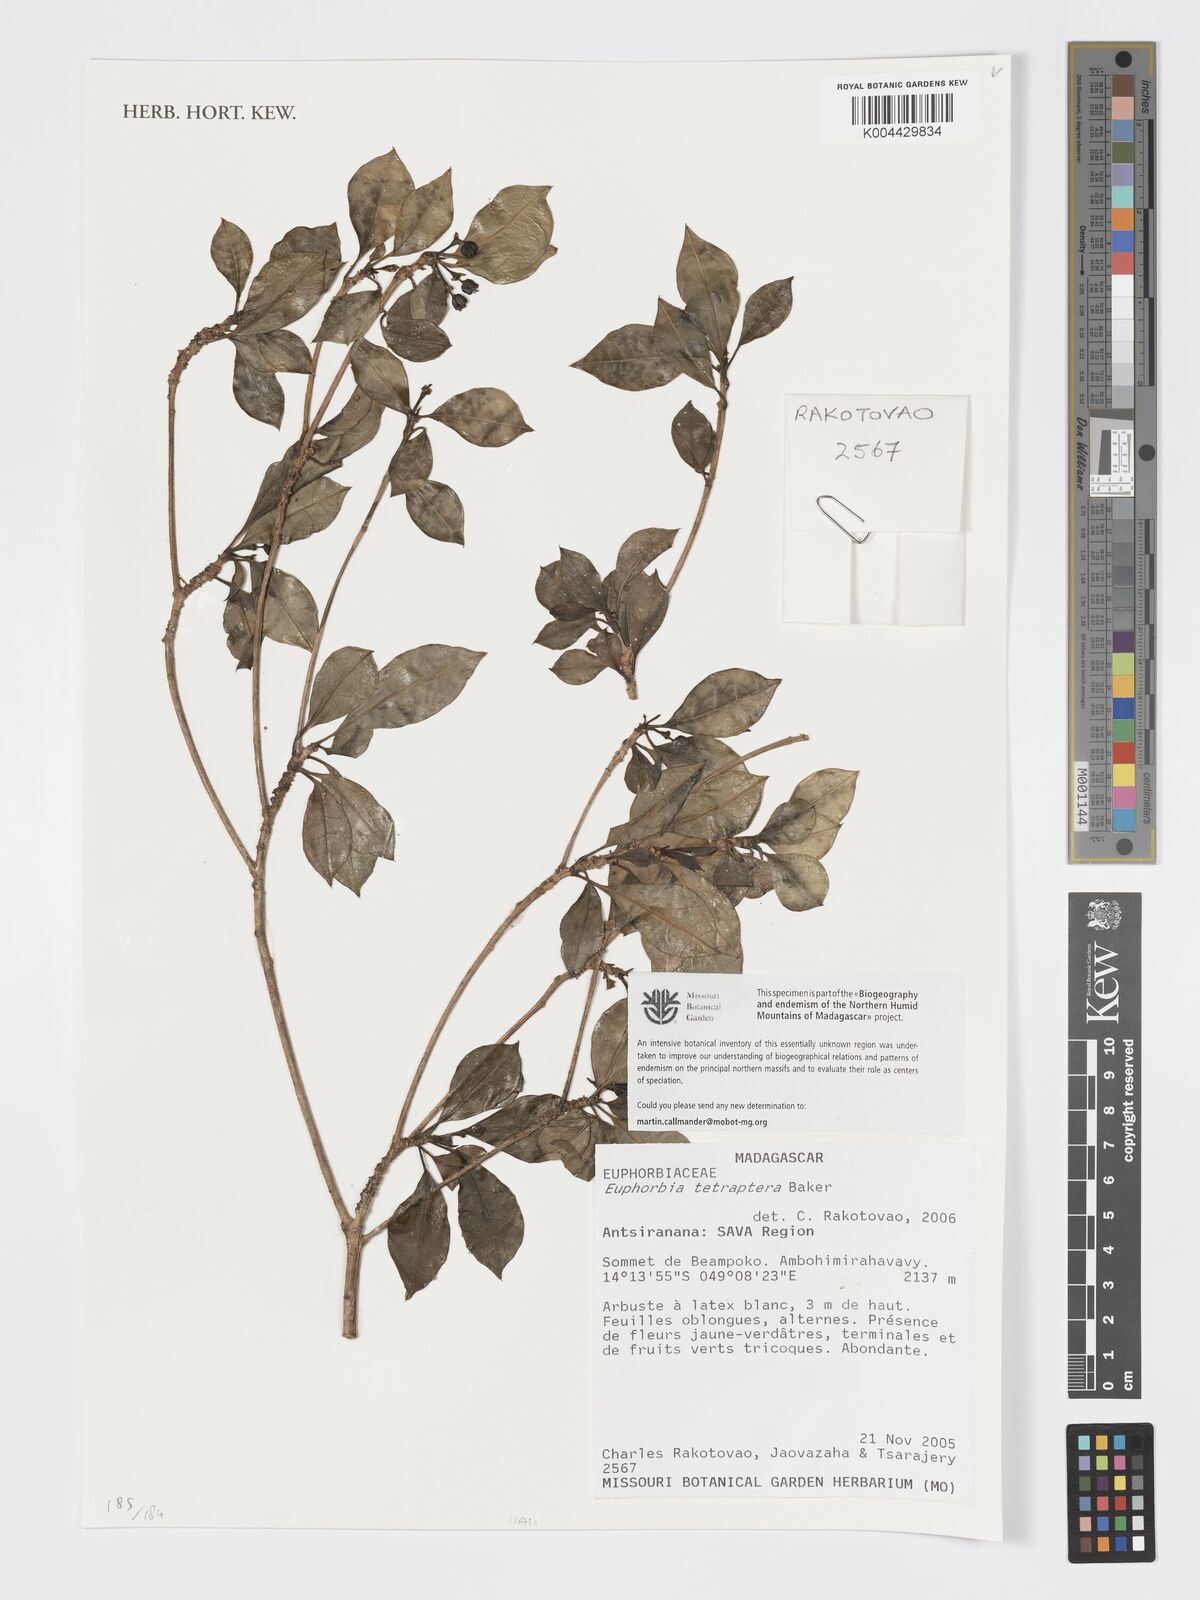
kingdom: Plantae
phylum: Tracheophyta
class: Magnoliopsida
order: Malpighiales
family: Euphorbiaceae
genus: Euphorbia
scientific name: Euphorbia tetraptera
